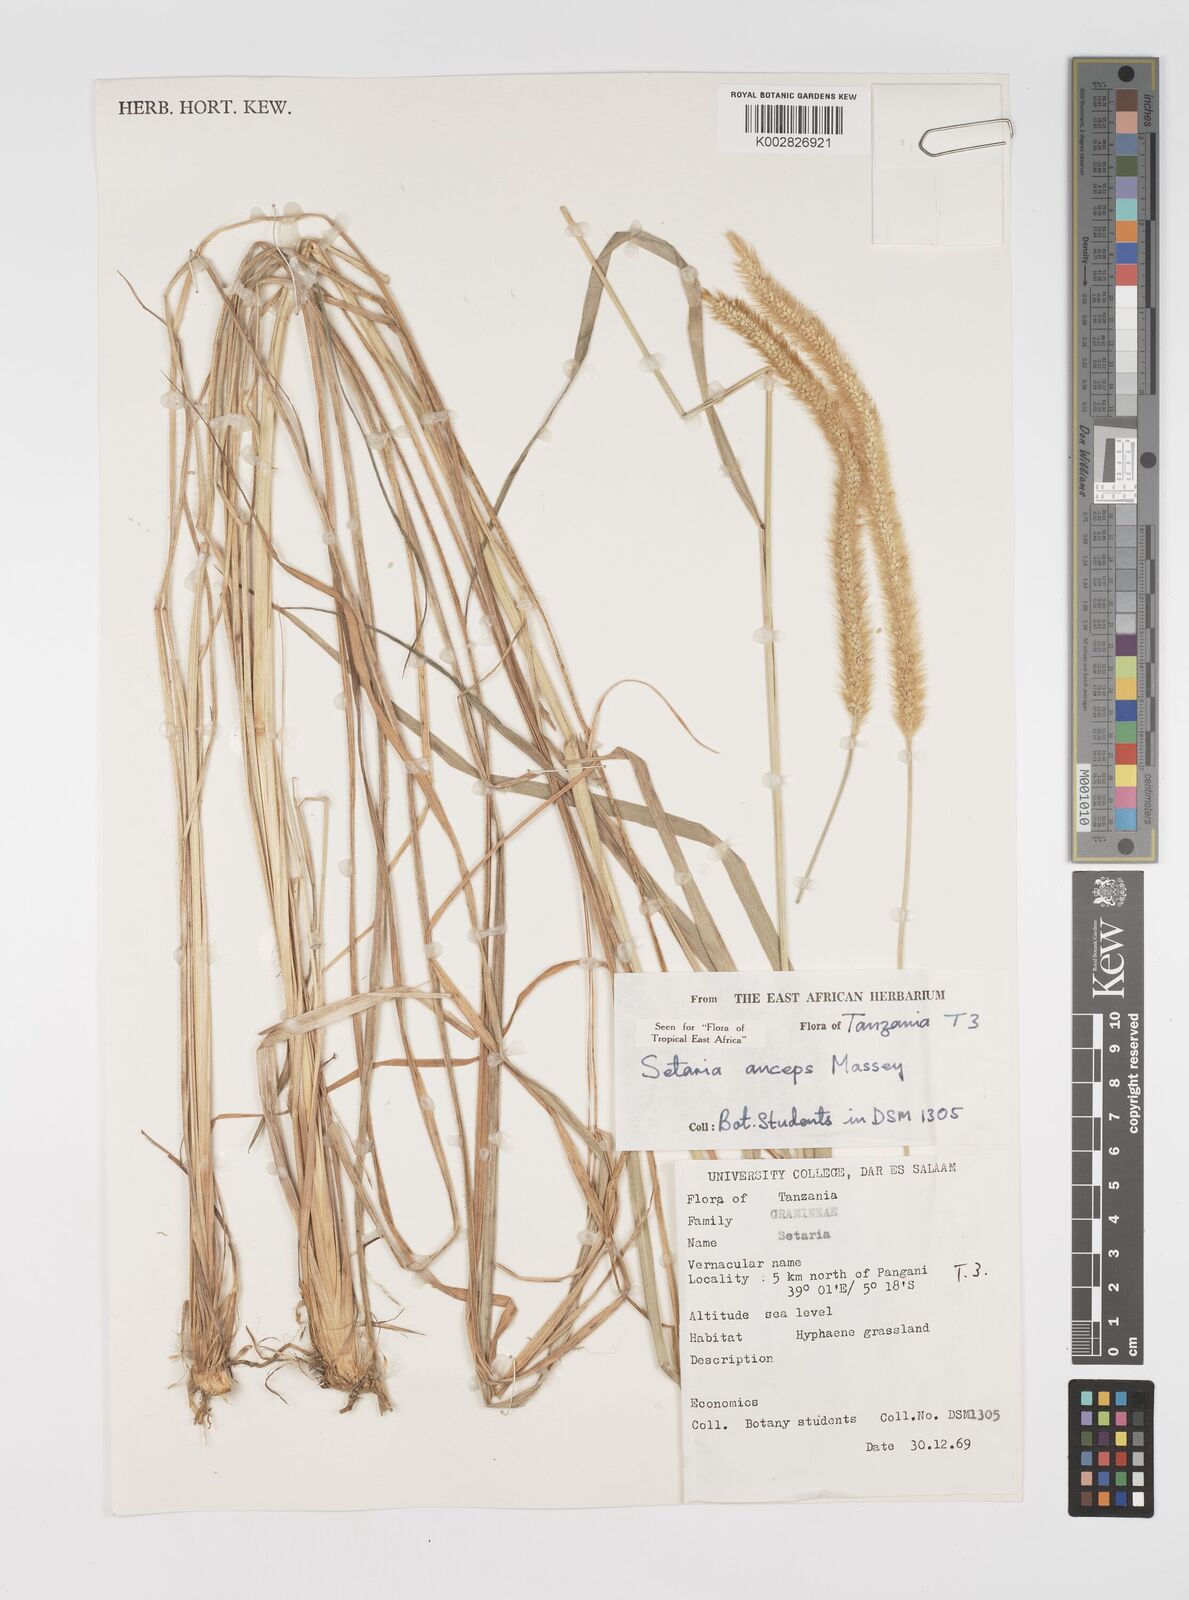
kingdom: Plantae
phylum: Tracheophyta
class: Liliopsida
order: Poales
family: Poaceae
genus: Setaria
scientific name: Setaria sphacelata
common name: African bristlegrass
